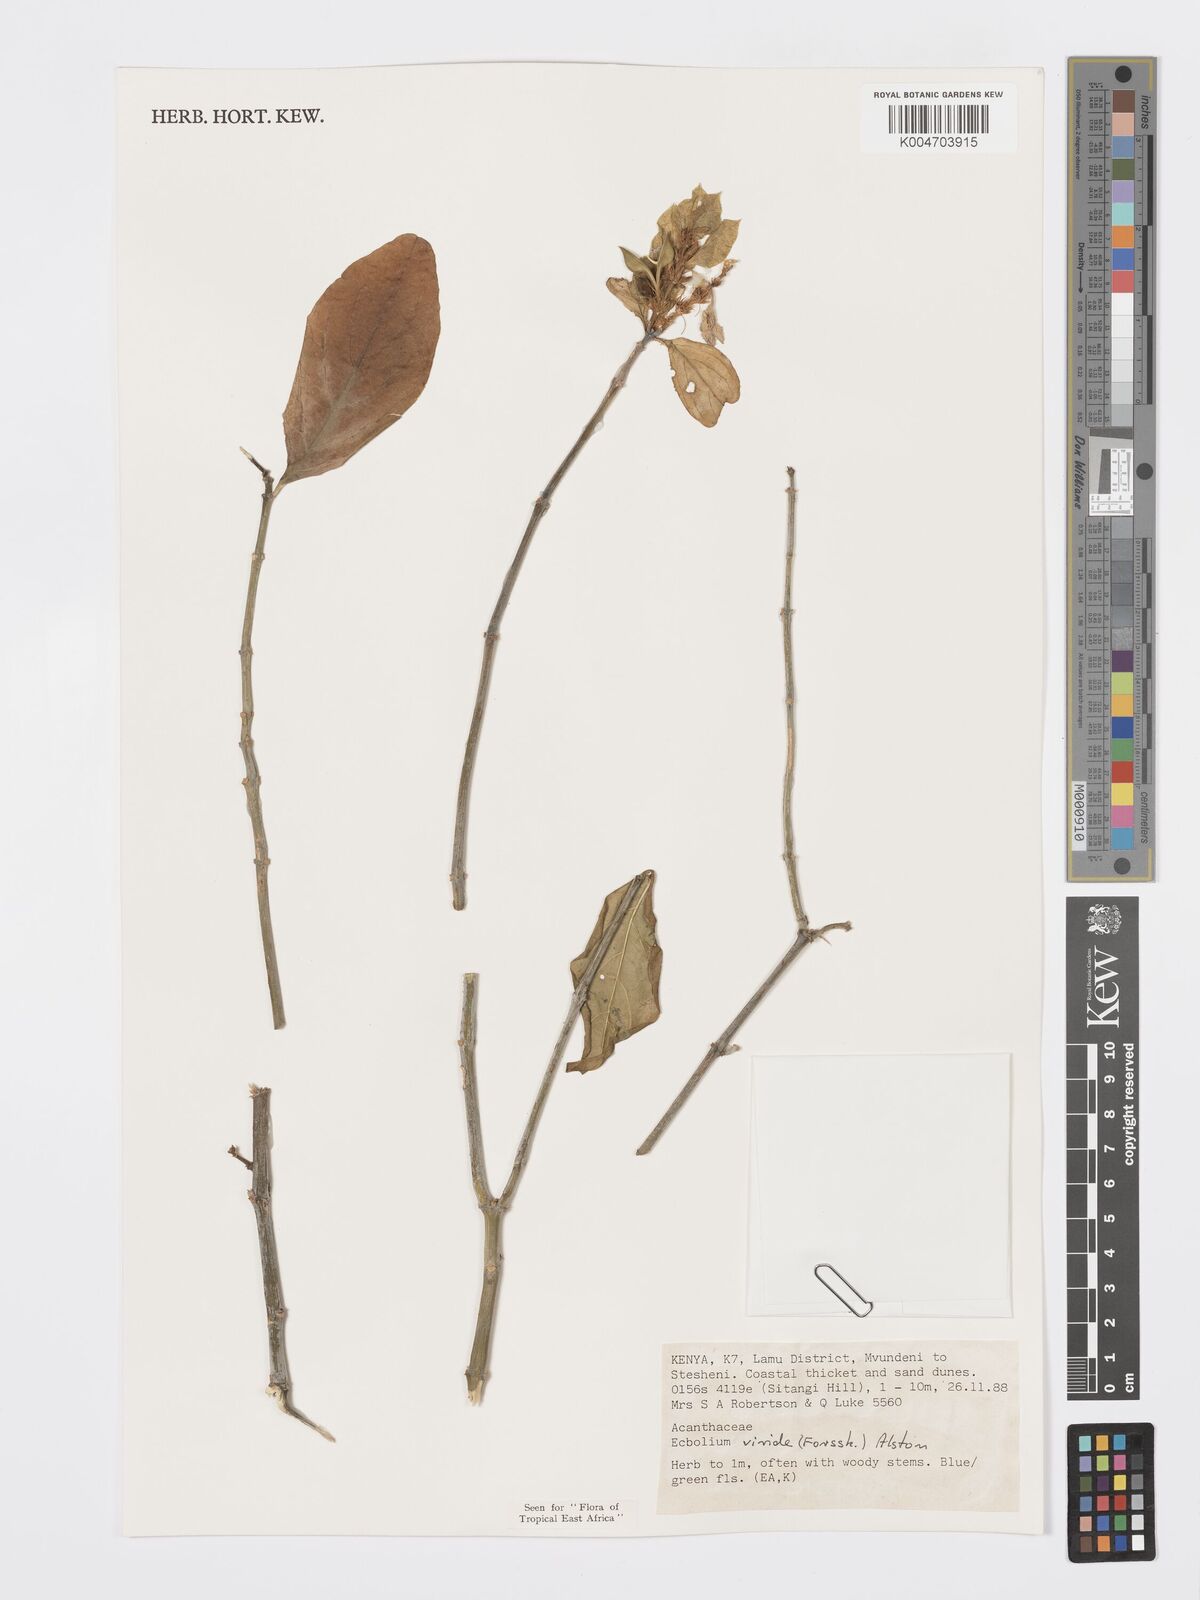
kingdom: Plantae
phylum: Tracheophyta
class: Magnoliopsida
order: Lamiales
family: Acanthaceae
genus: Ecbolium
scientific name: Ecbolium viride
